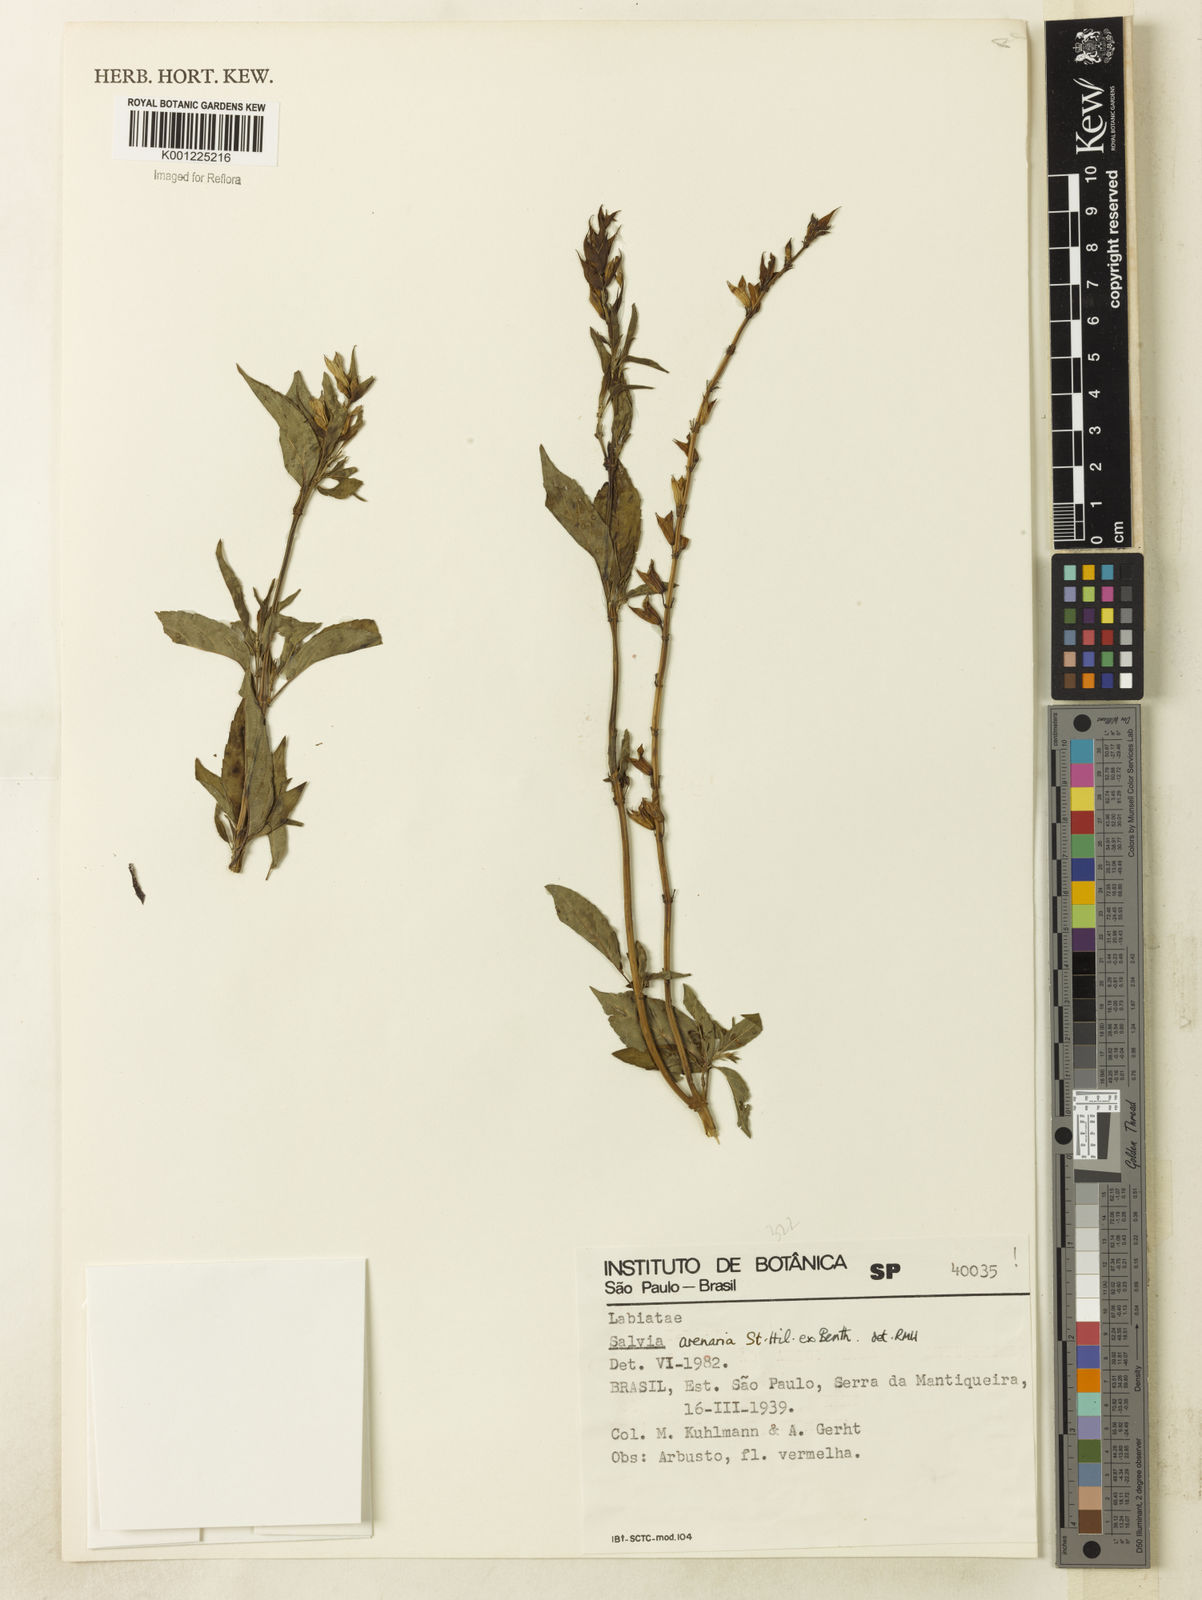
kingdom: Plantae
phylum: Tracheophyta
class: Magnoliopsida
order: Lamiales
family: Lamiaceae
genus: Salvia
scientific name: Salvia arenaria
